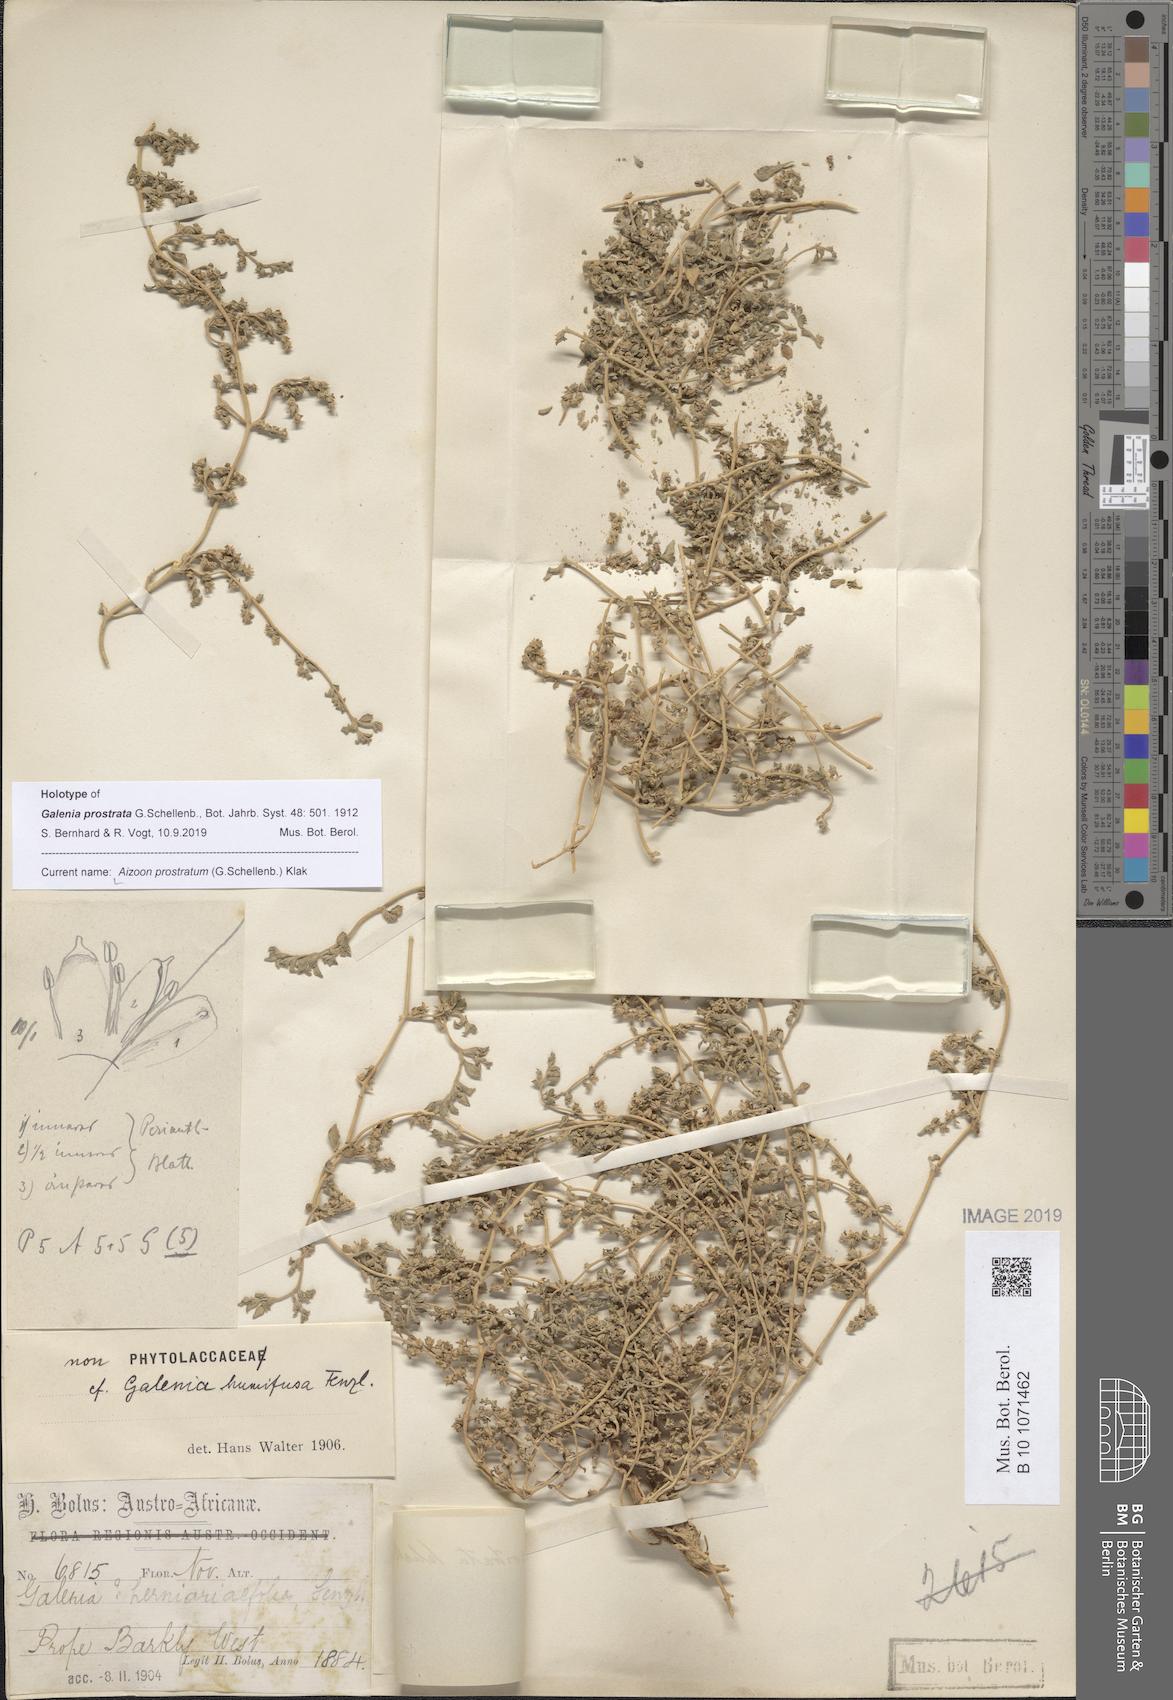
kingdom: Plantae
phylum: Tracheophyta
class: Magnoliopsida
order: Caryophyllales
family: Aizoaceae
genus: Aizoon
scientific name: Aizoon prostratum
